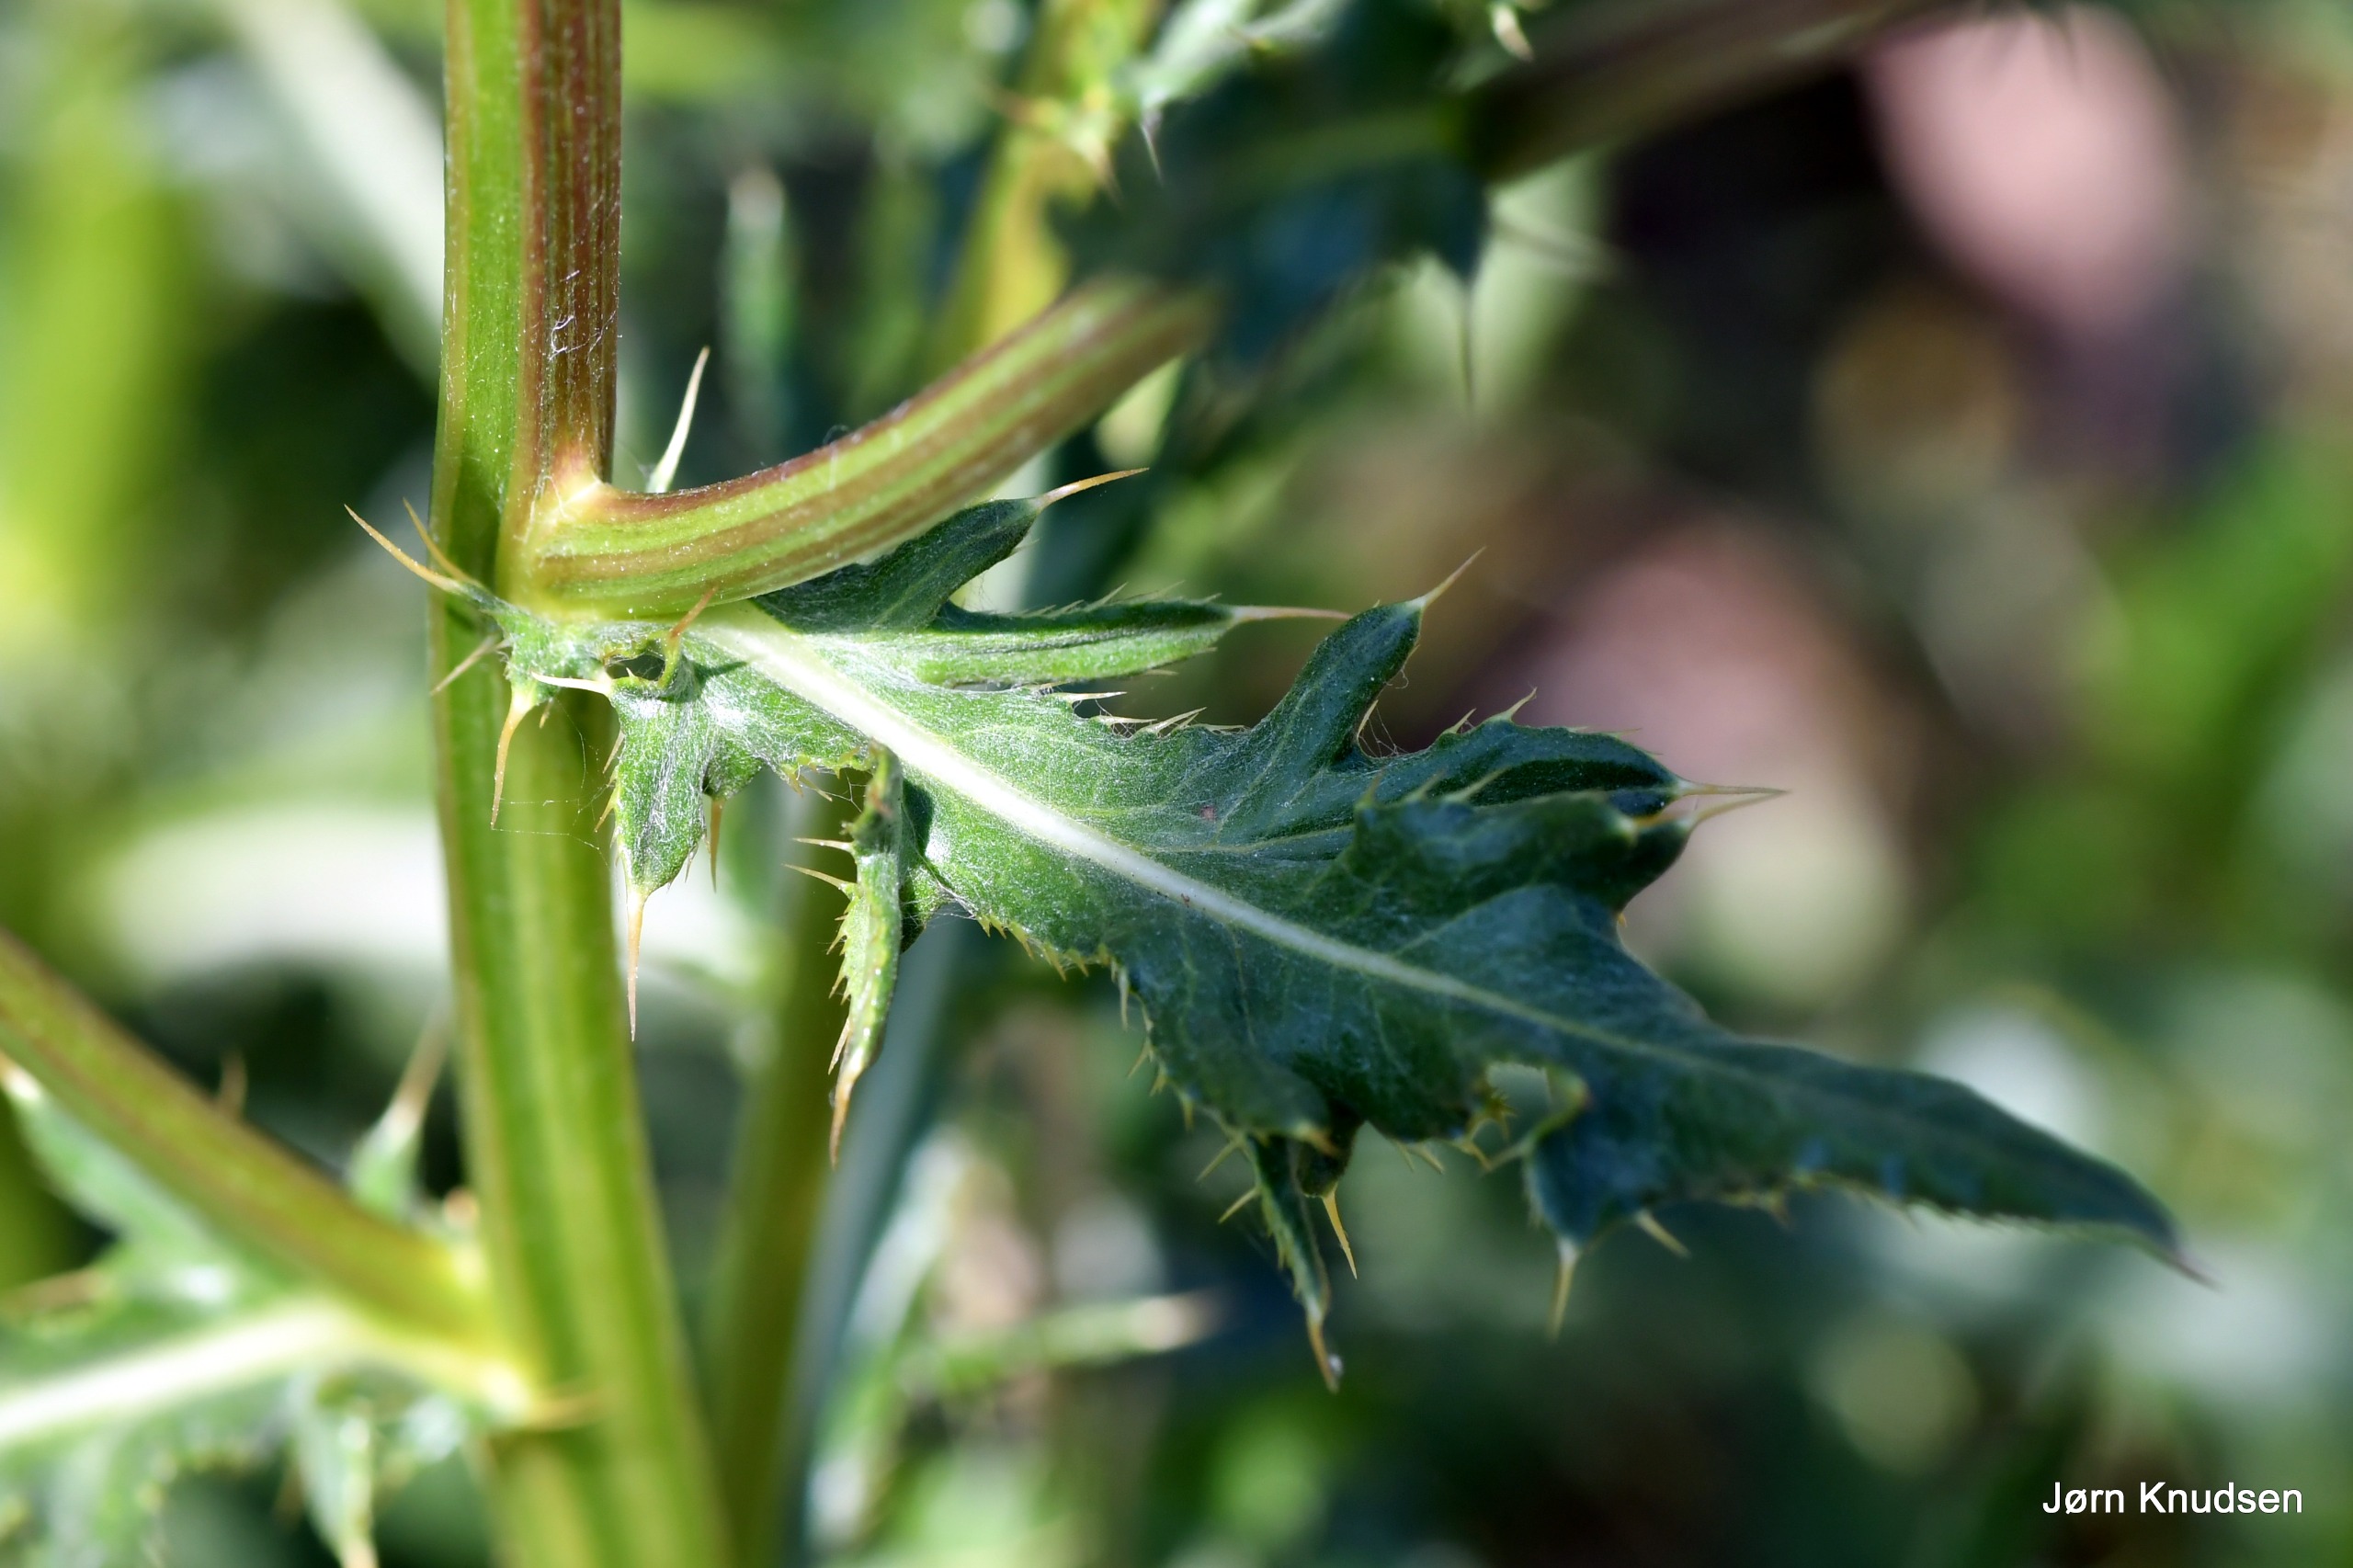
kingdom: Plantae
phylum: Tracheophyta
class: Magnoliopsida
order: Asterales
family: Asteraceae
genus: Cirsium
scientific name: Cirsium arvense
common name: Ager-tidsel
